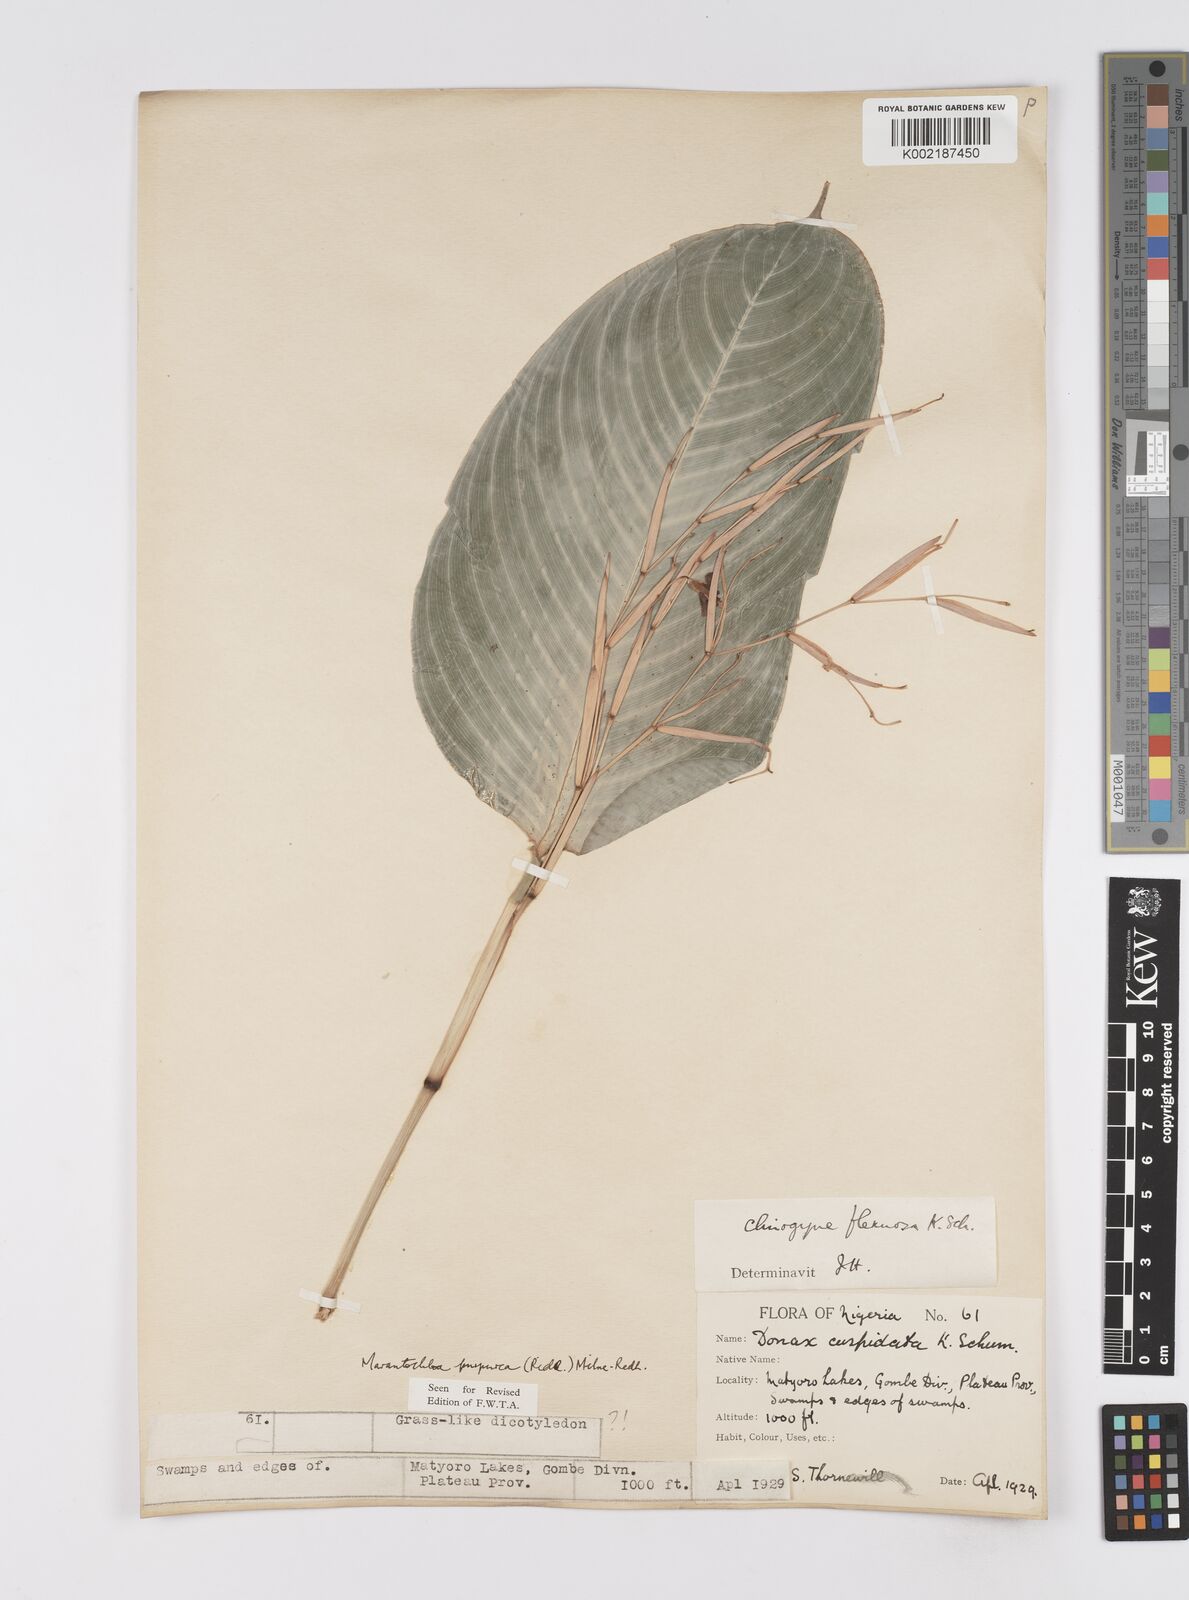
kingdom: Plantae
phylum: Tracheophyta
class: Liliopsida
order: Zingiberales
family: Marantaceae
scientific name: Marantaceae
